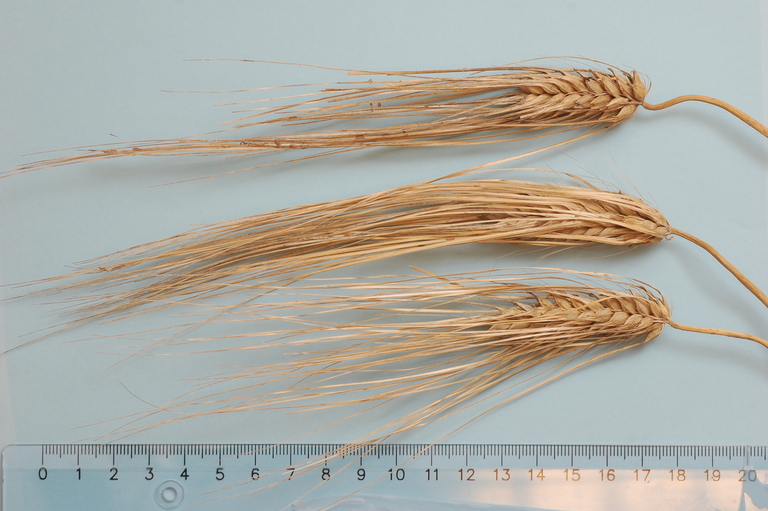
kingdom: Plantae
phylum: Tracheophyta
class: Liliopsida
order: Poales
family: Poaceae
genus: Hordeum
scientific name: Hordeum vulgare
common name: Common barley
